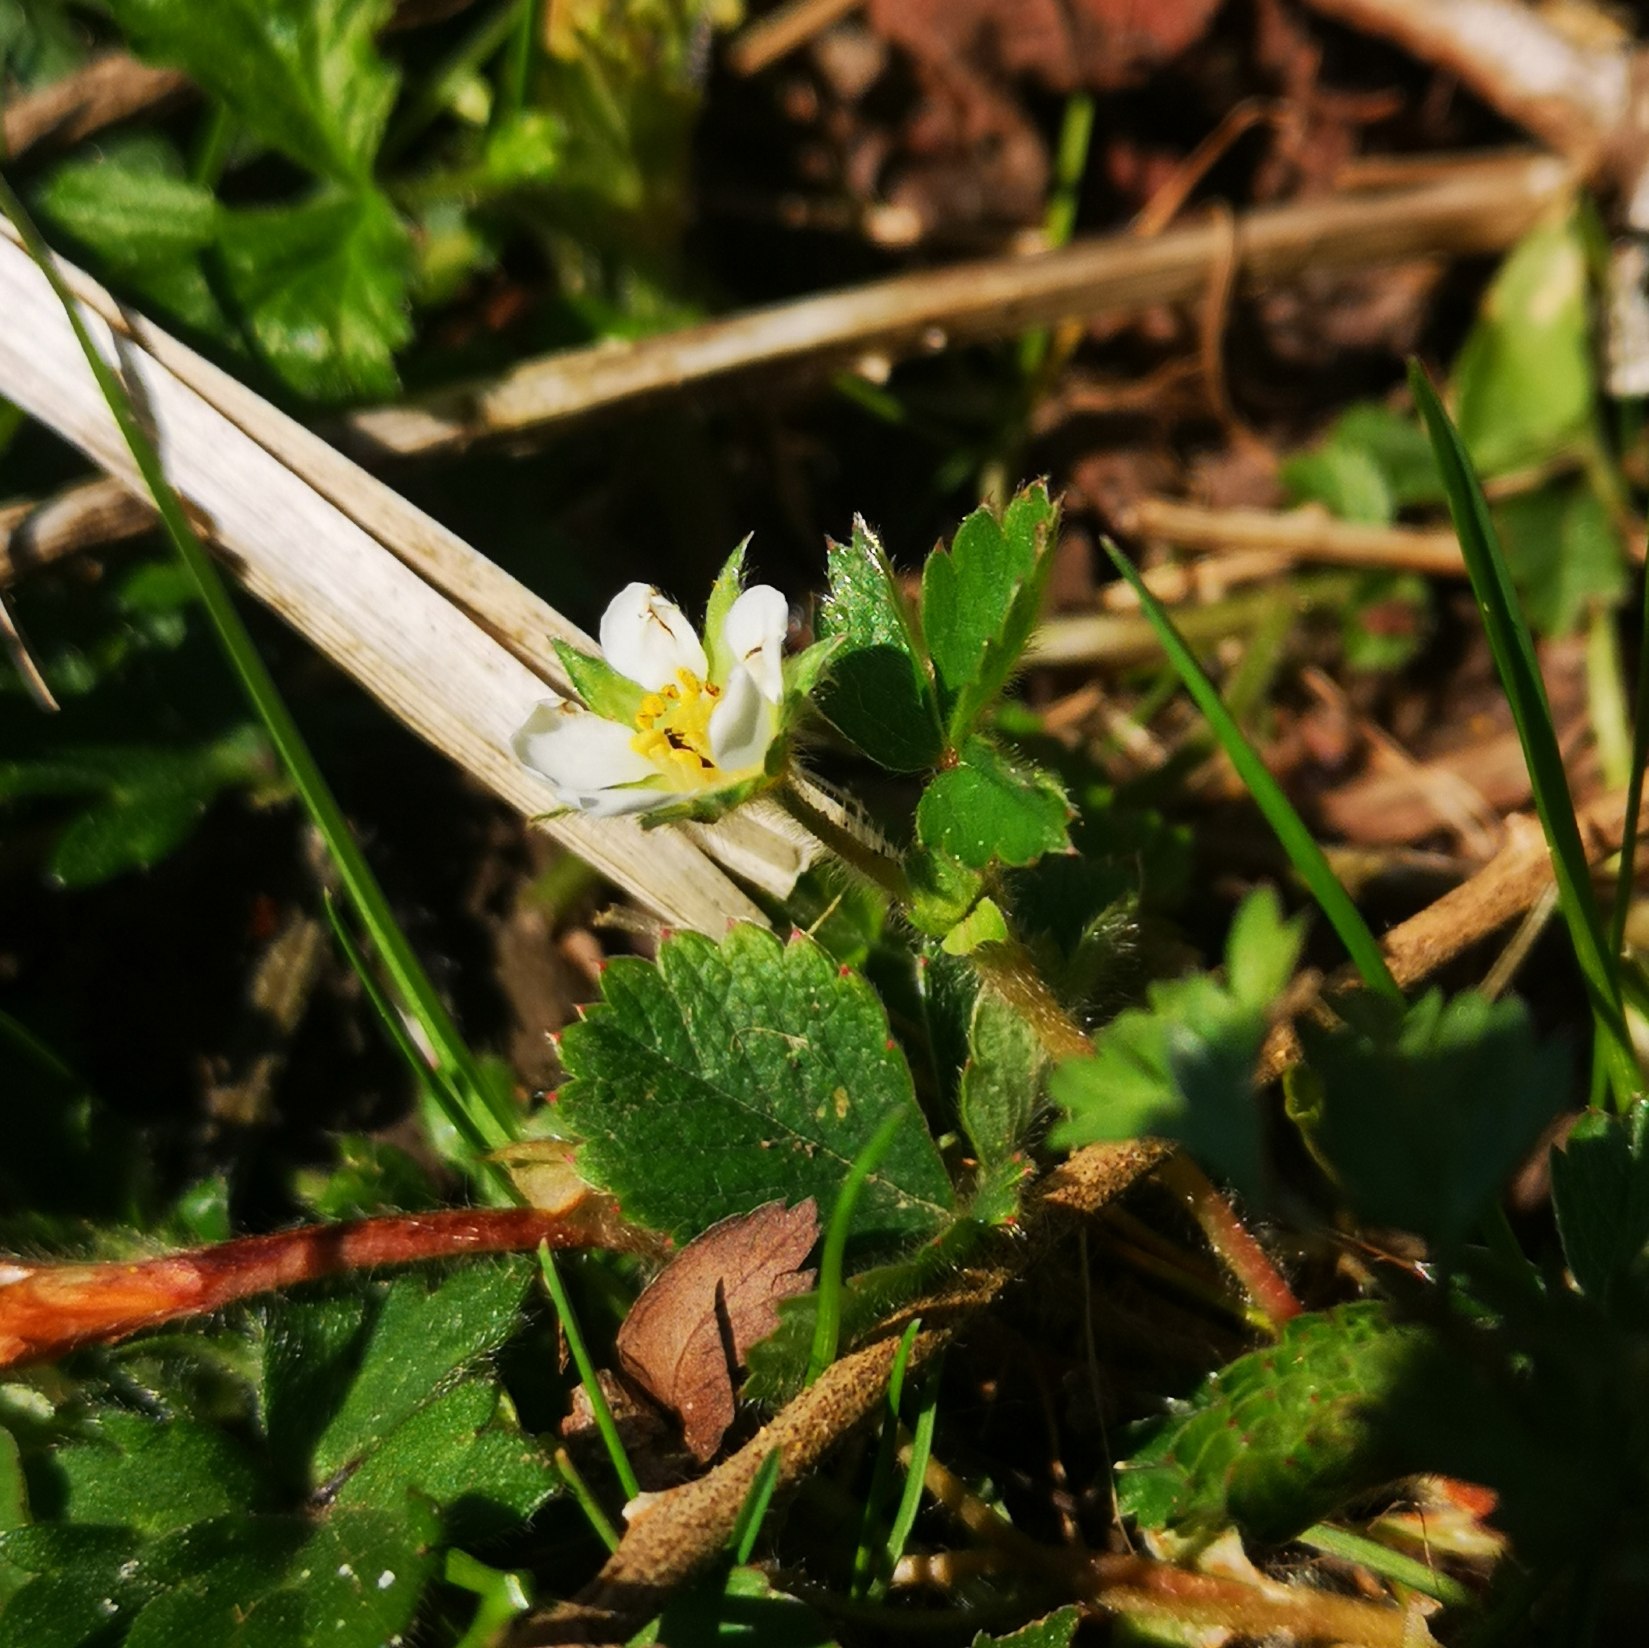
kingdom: Plantae
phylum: Tracheophyta
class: Magnoliopsida
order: Rosales
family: Rosaceae
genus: Fragaria
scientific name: Fragaria viridis
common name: Bakke-jordbær
